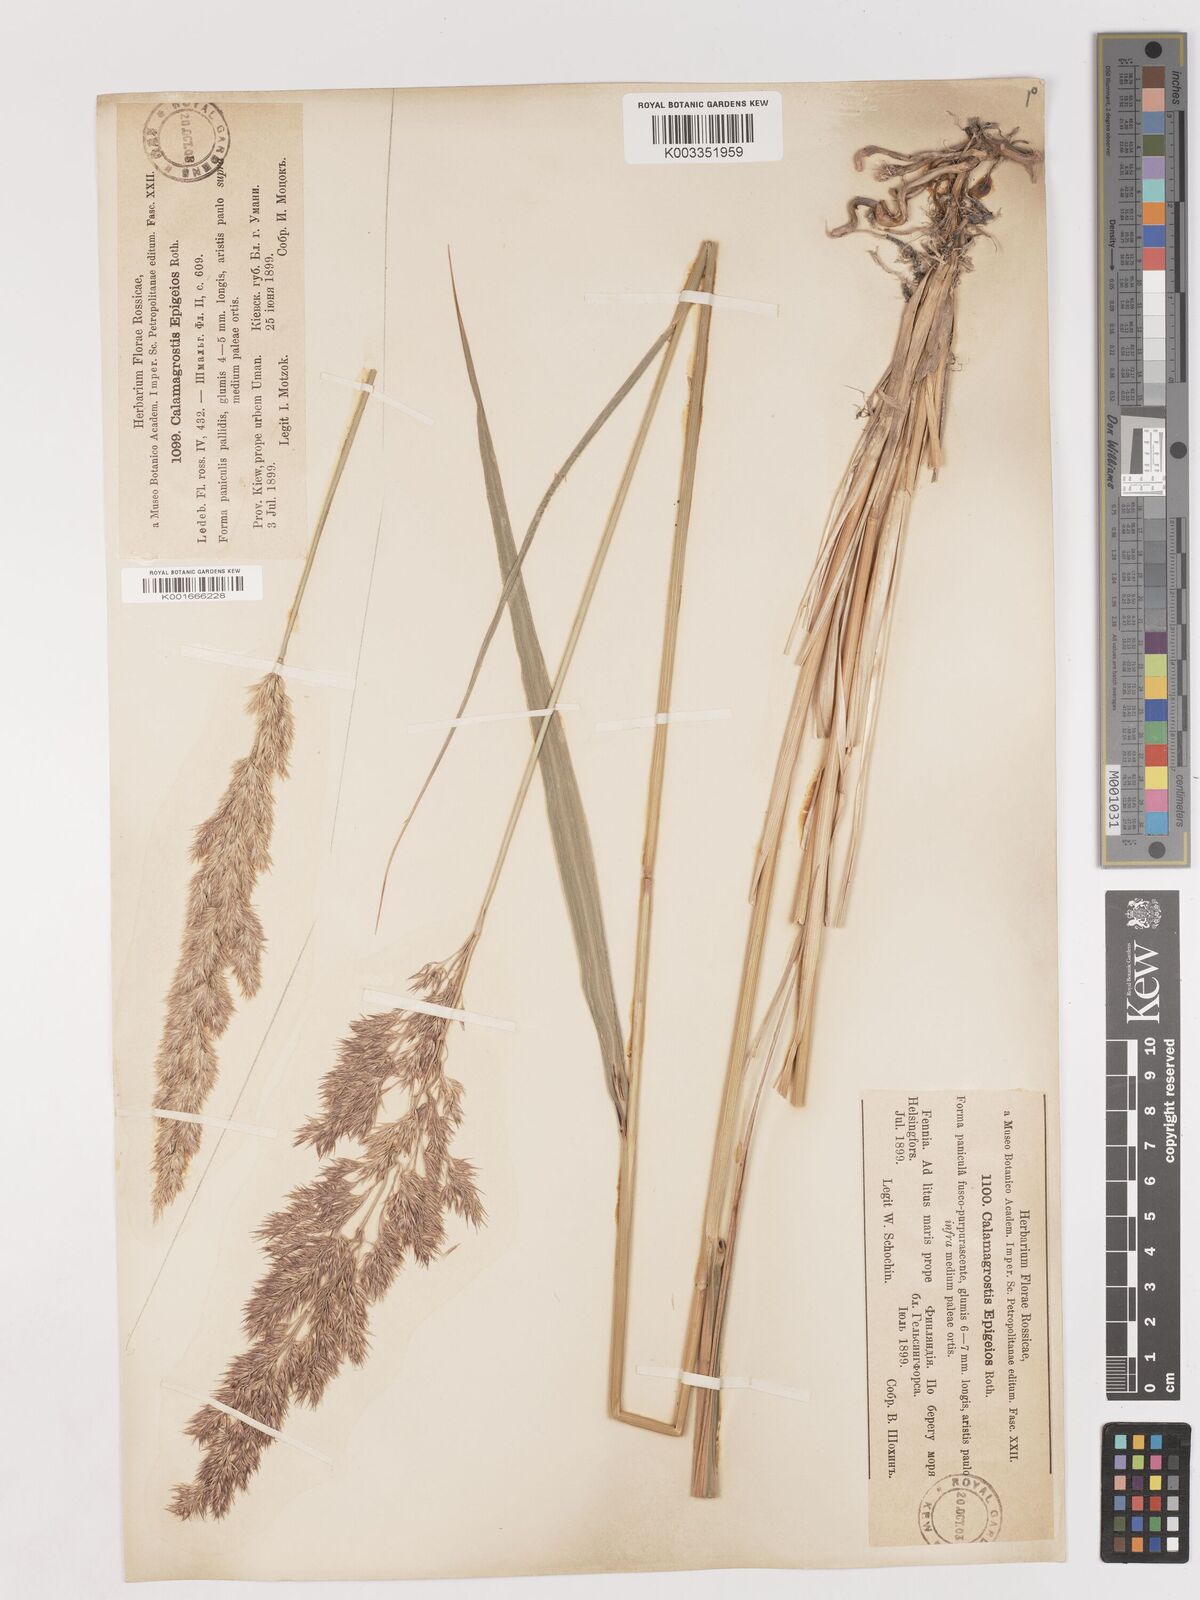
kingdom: Plantae
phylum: Tracheophyta
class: Liliopsida
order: Poales
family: Poaceae
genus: Calamagrostis
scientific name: Calamagrostis epigejos
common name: Wood small-reed
